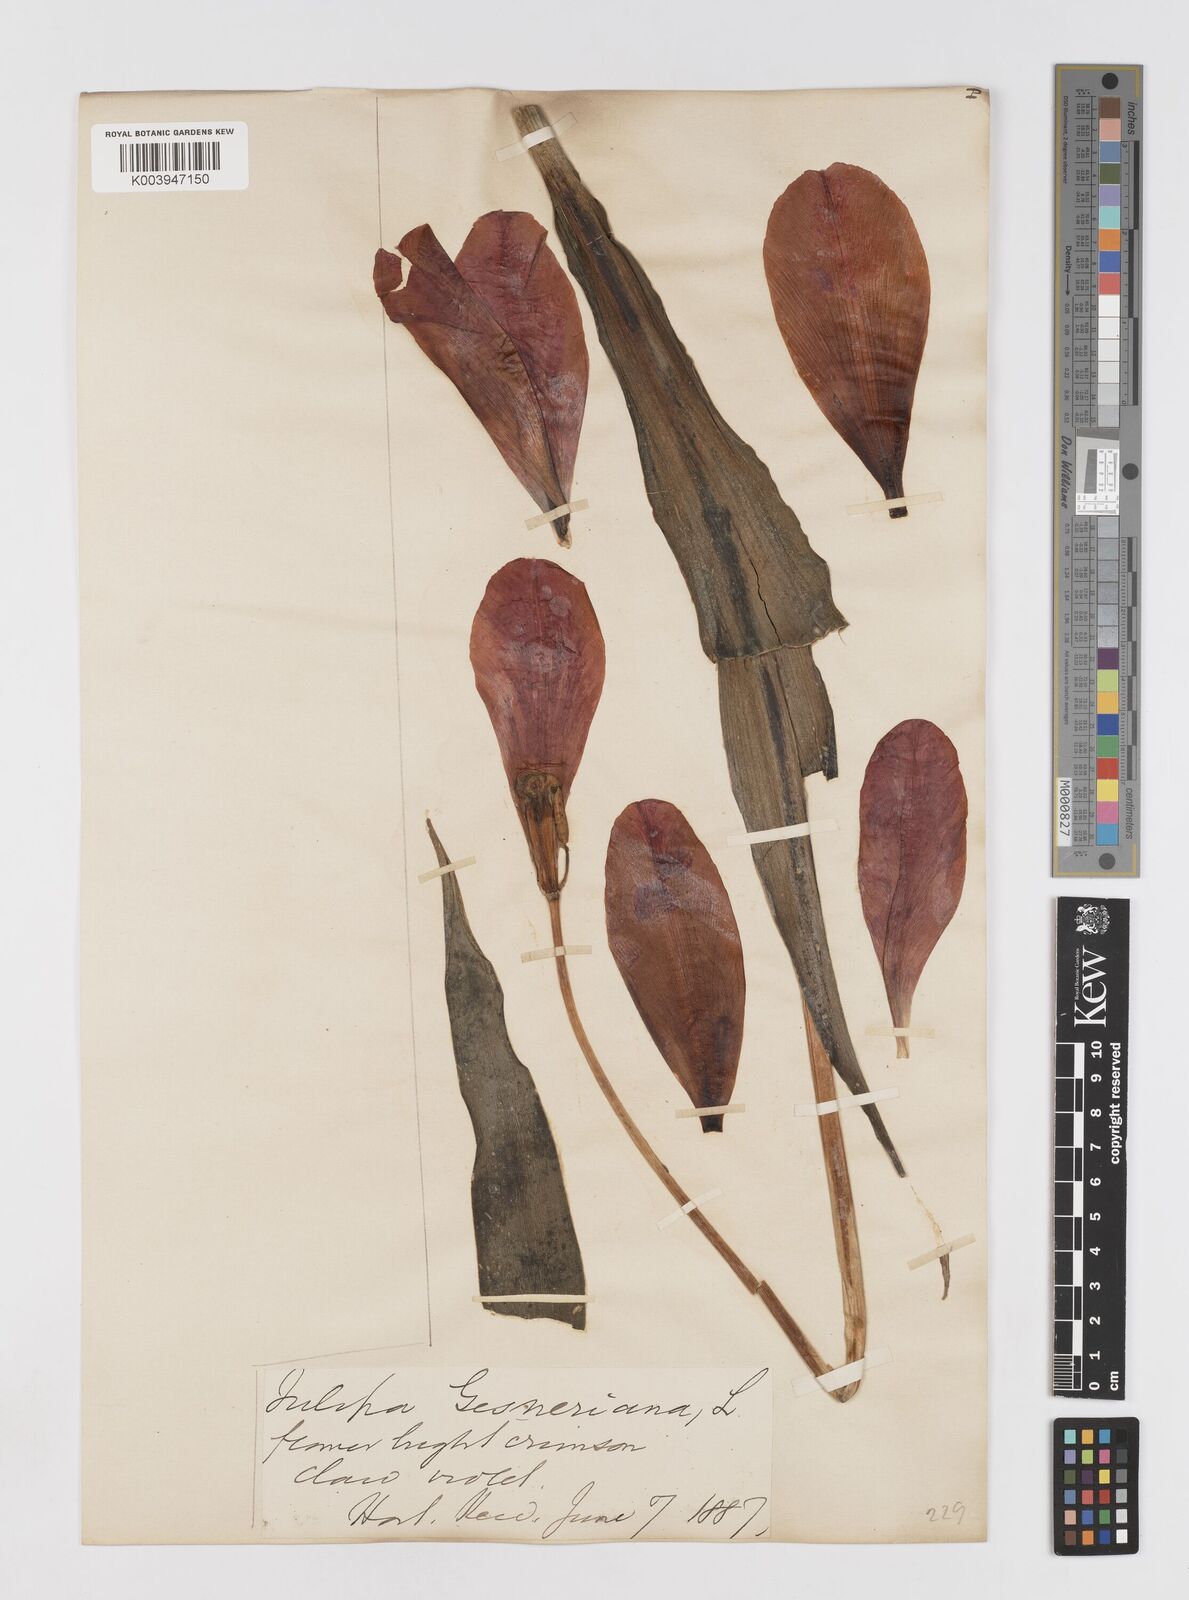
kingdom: Plantae
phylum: Tracheophyta
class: Liliopsida
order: Liliales
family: Liliaceae
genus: Tulipa
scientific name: Tulipa gesneriana
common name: Garden tulip
